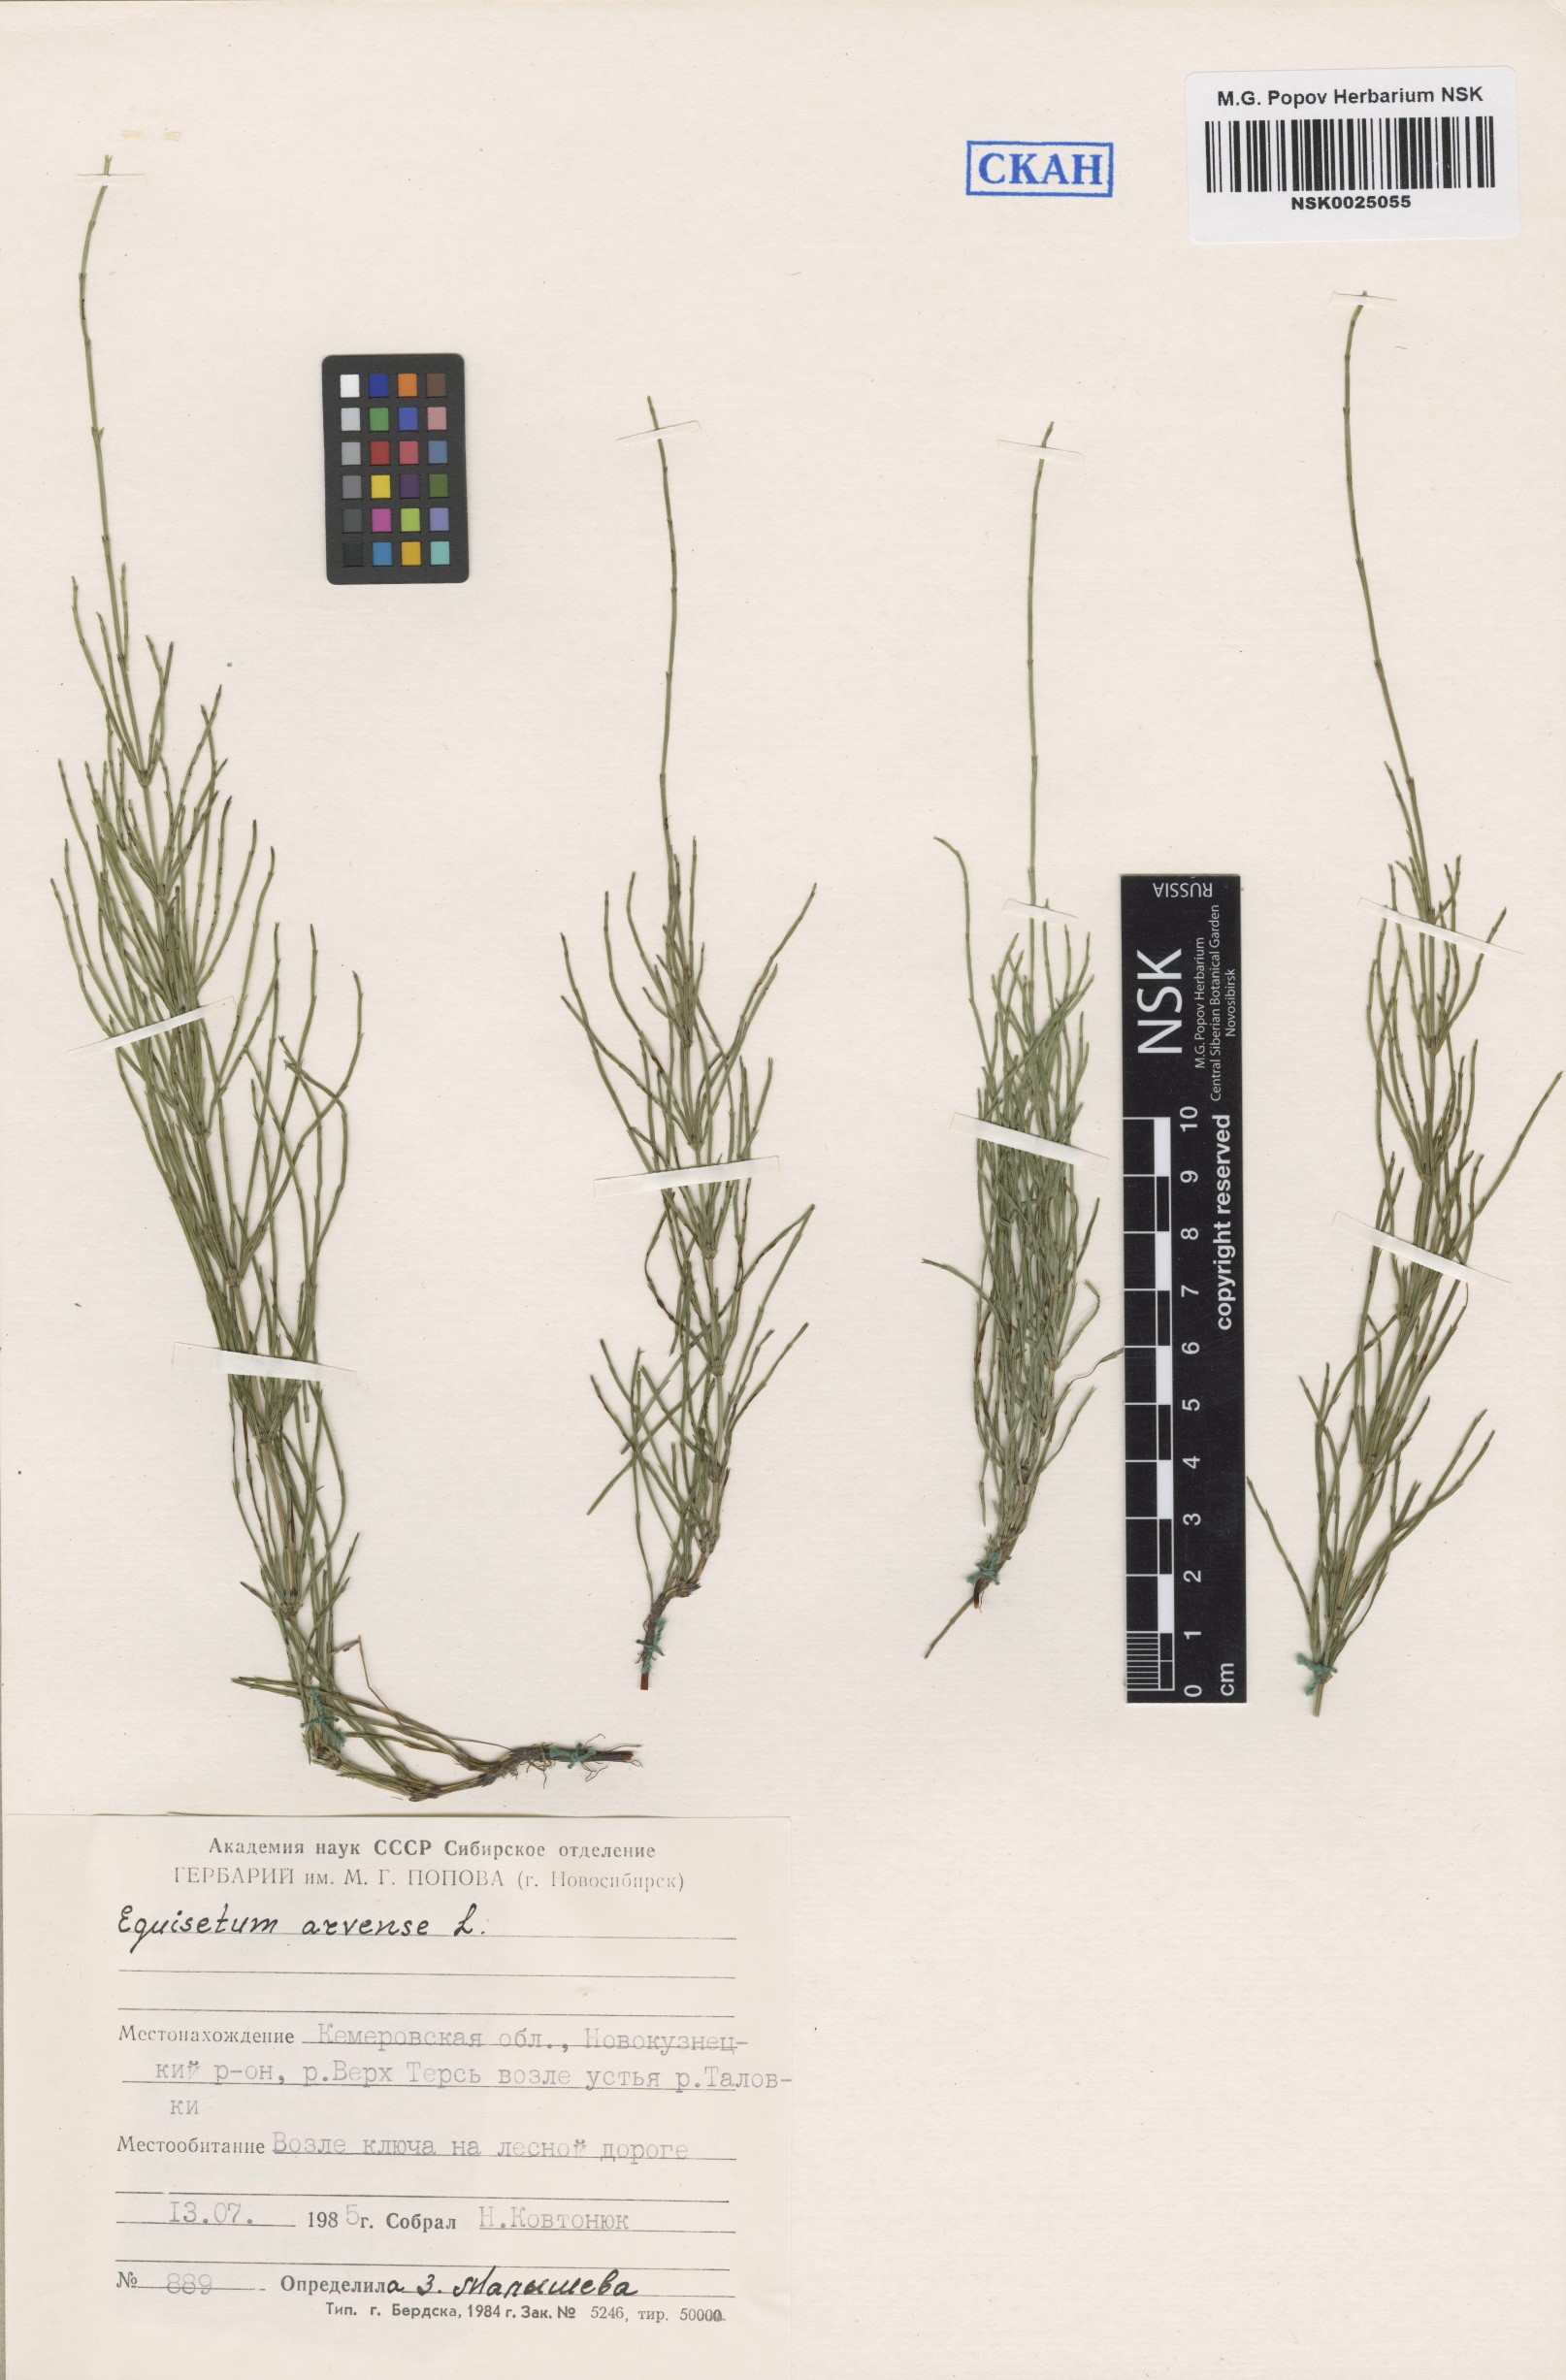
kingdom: Plantae
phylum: Tracheophyta
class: Polypodiopsida
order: Equisetales
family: Equisetaceae
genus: Equisetum
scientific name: Equisetum arvense
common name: Field horsetail
